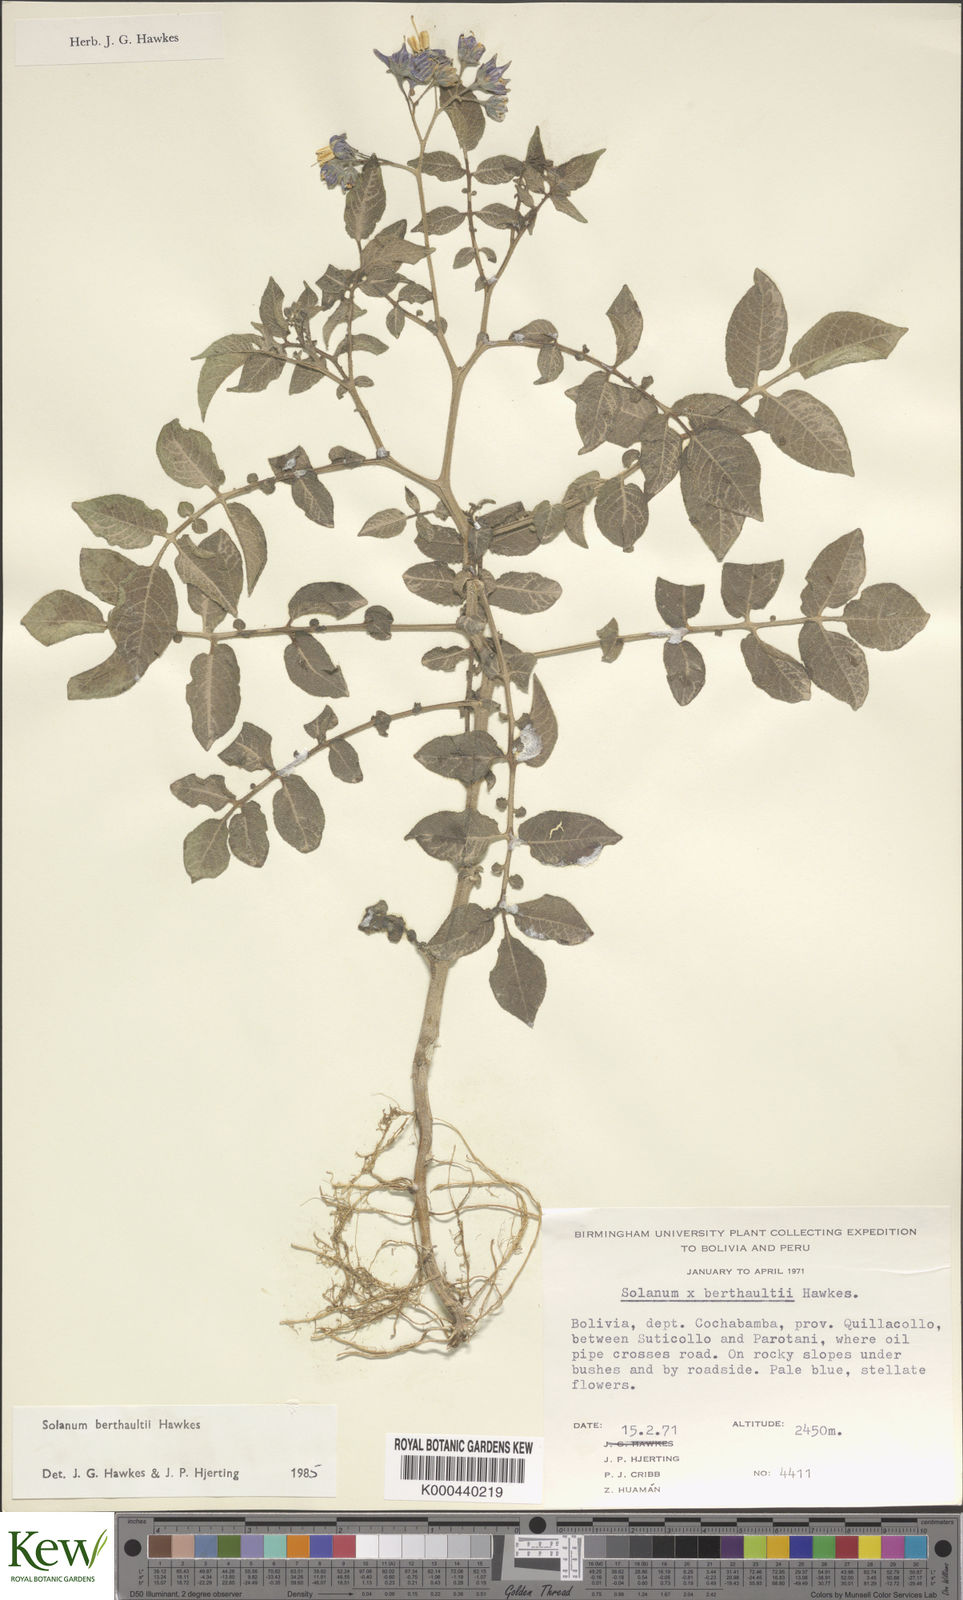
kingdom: Plantae
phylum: Tracheophyta
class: Magnoliopsida
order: Solanales
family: Solanaceae
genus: Solanum
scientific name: Solanum berthaultii
